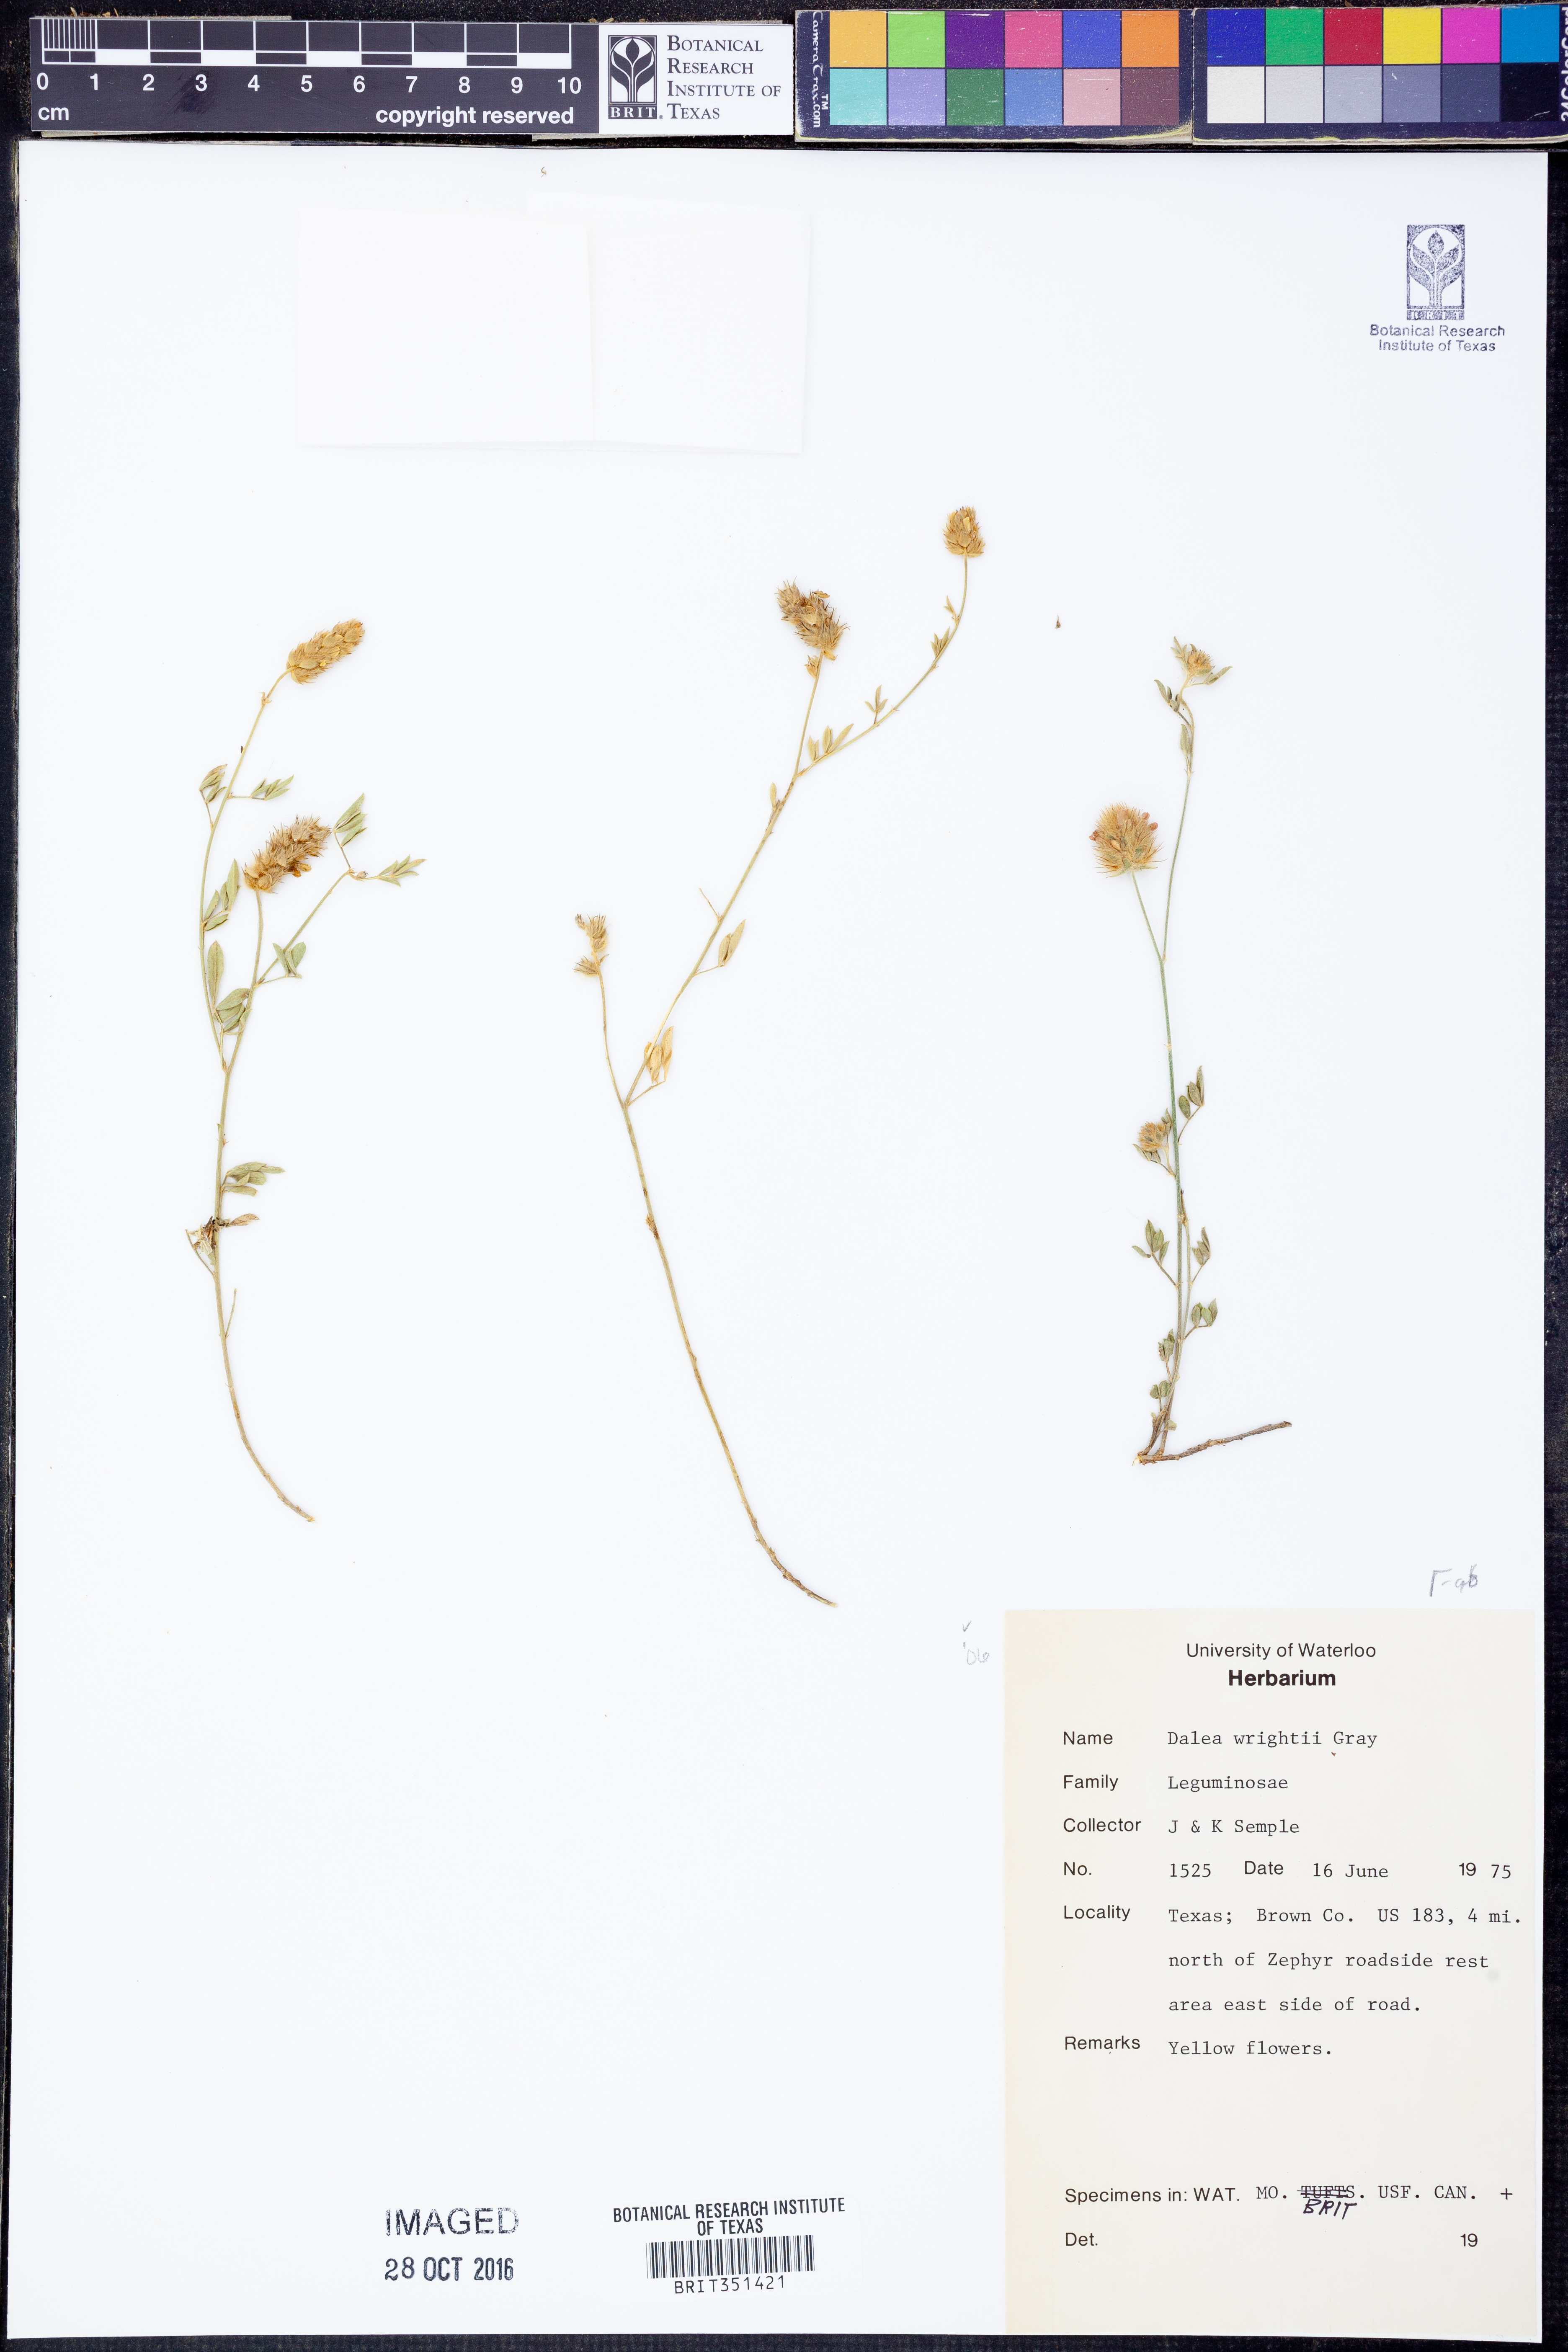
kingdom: Plantae
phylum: Tracheophyta
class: Magnoliopsida
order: Fabales
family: Fabaceae
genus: Dalea
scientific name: Dalea wrightii
